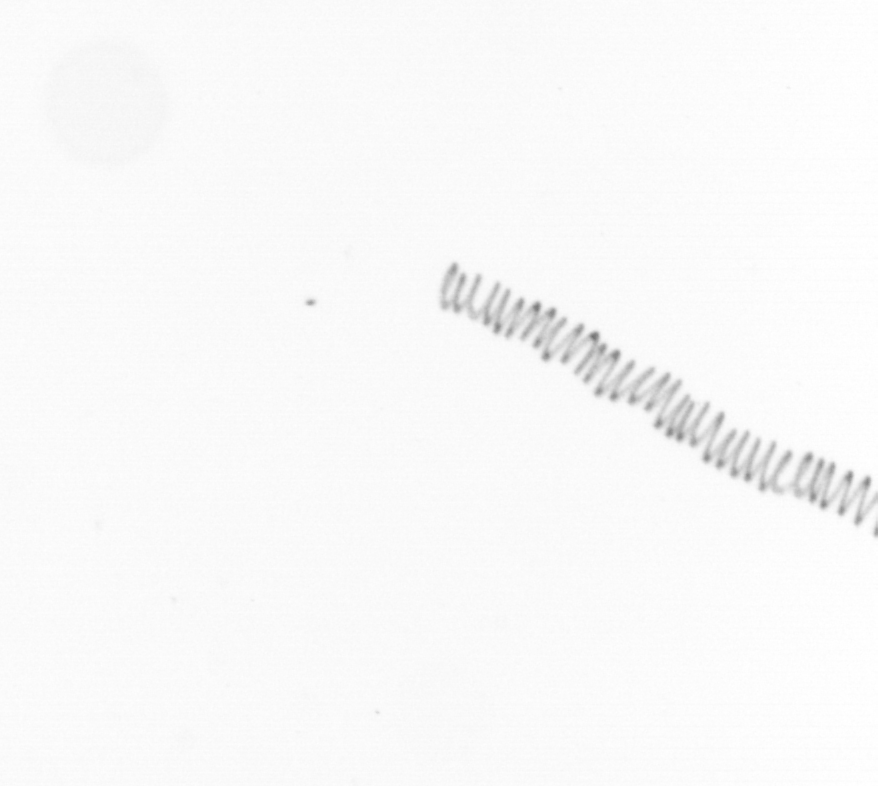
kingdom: Chromista
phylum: Ochrophyta
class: Bacillariophyceae
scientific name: Bacillariophyceae
